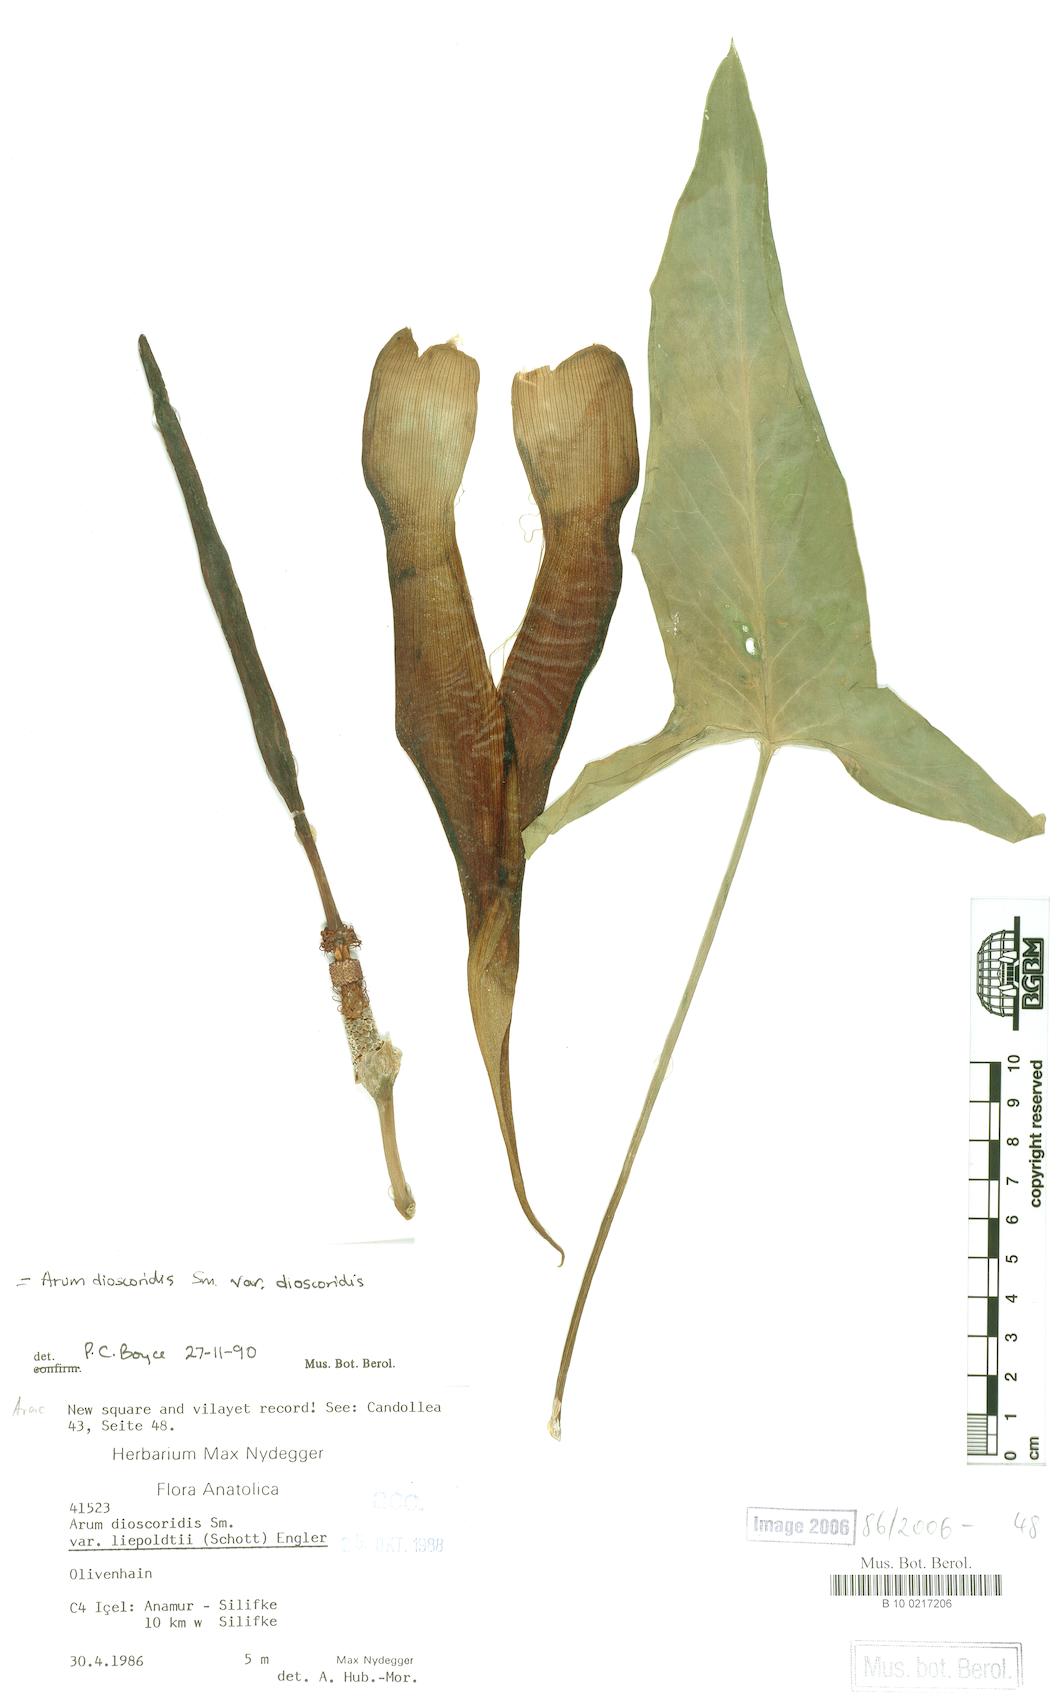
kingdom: Plantae
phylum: Tracheophyta
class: Liliopsida
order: Alismatales
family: Araceae
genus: Arum
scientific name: Arum dioscoridis
